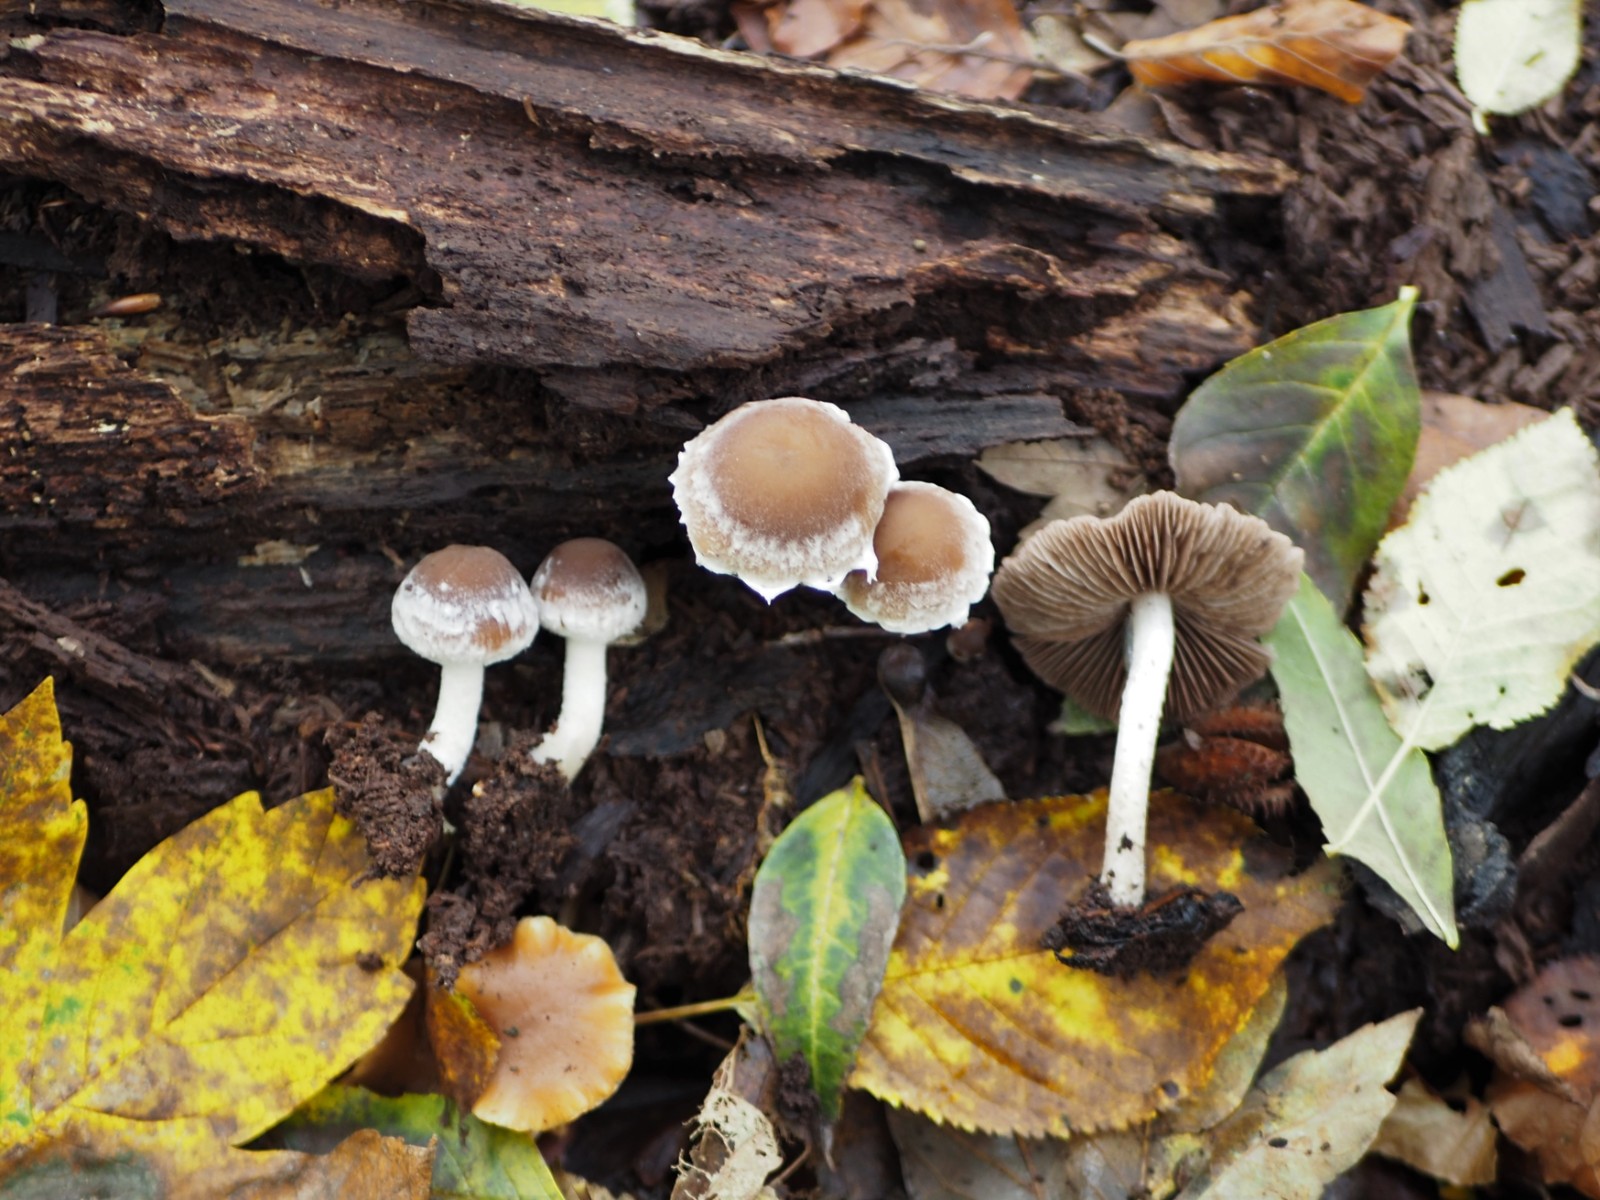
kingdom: Fungi
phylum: Basidiomycota
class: Agaricomycetes
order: Agaricales
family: Psathyrellaceae
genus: Psathyrella
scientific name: Psathyrella spintrigeroides
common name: tandet mørkhat
